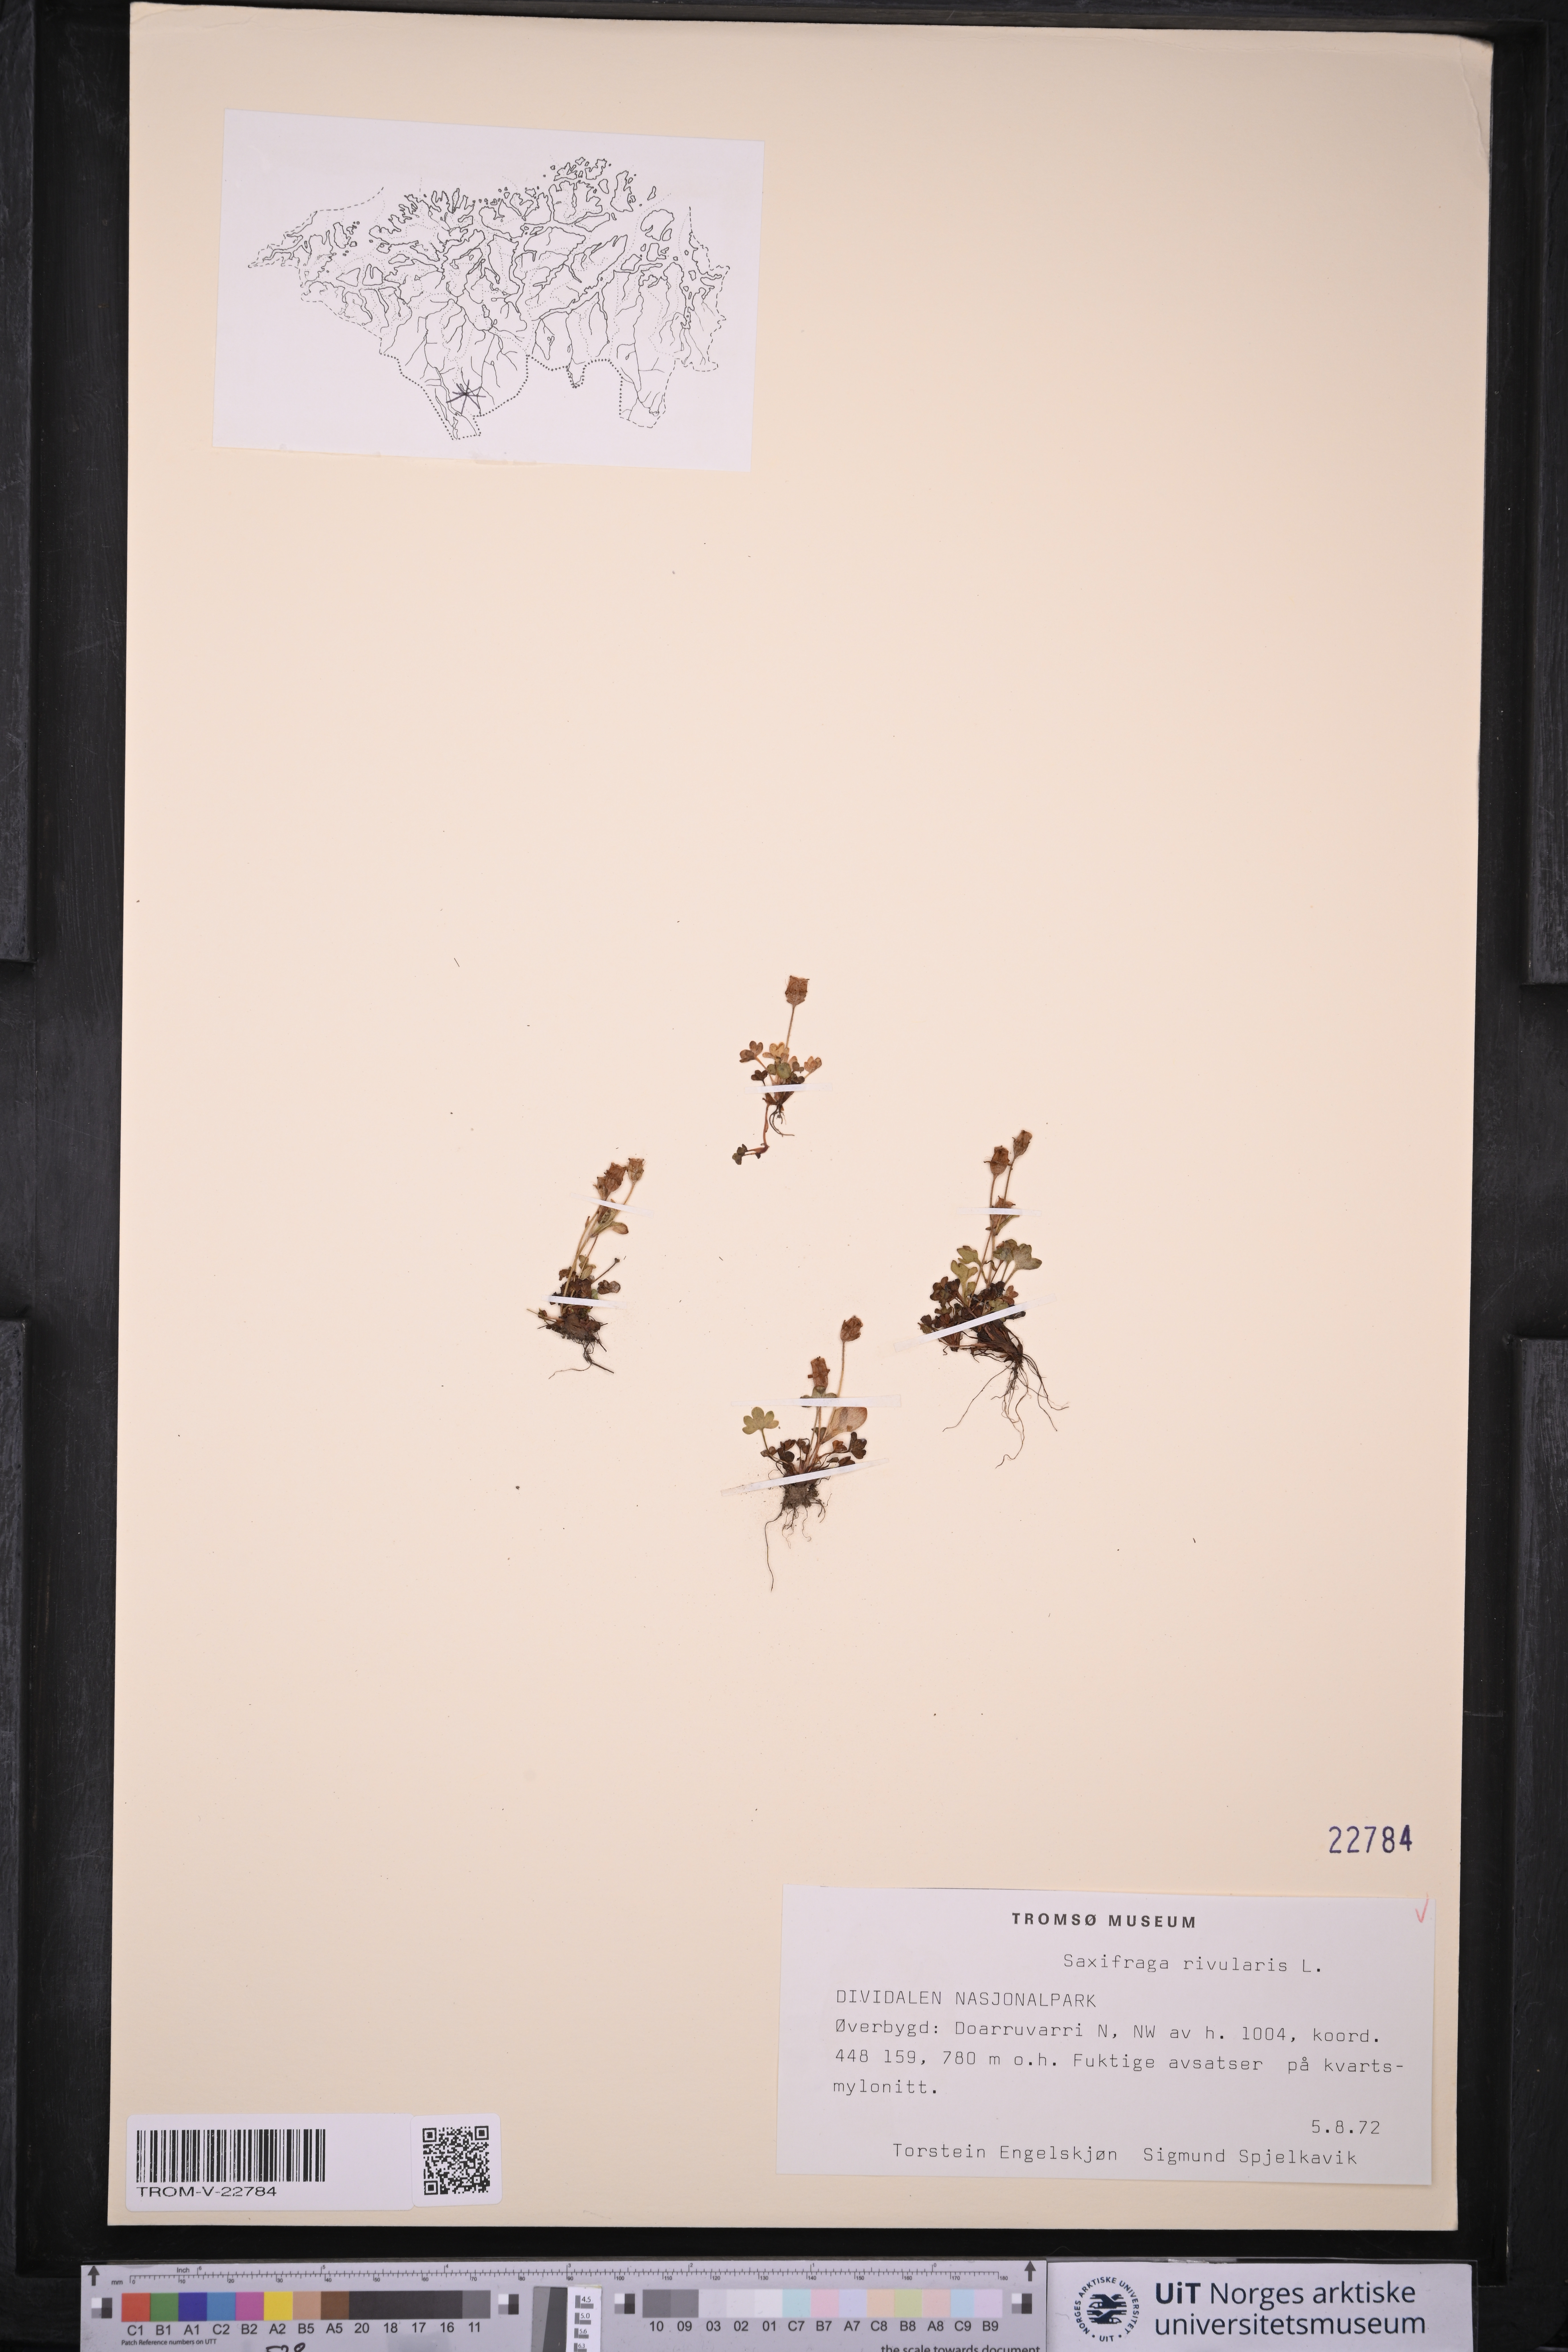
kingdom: Plantae
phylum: Tracheophyta
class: Magnoliopsida
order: Saxifragales
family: Saxifragaceae
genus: Saxifraga
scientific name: Saxifraga rivularis
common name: Highland saxifrage
